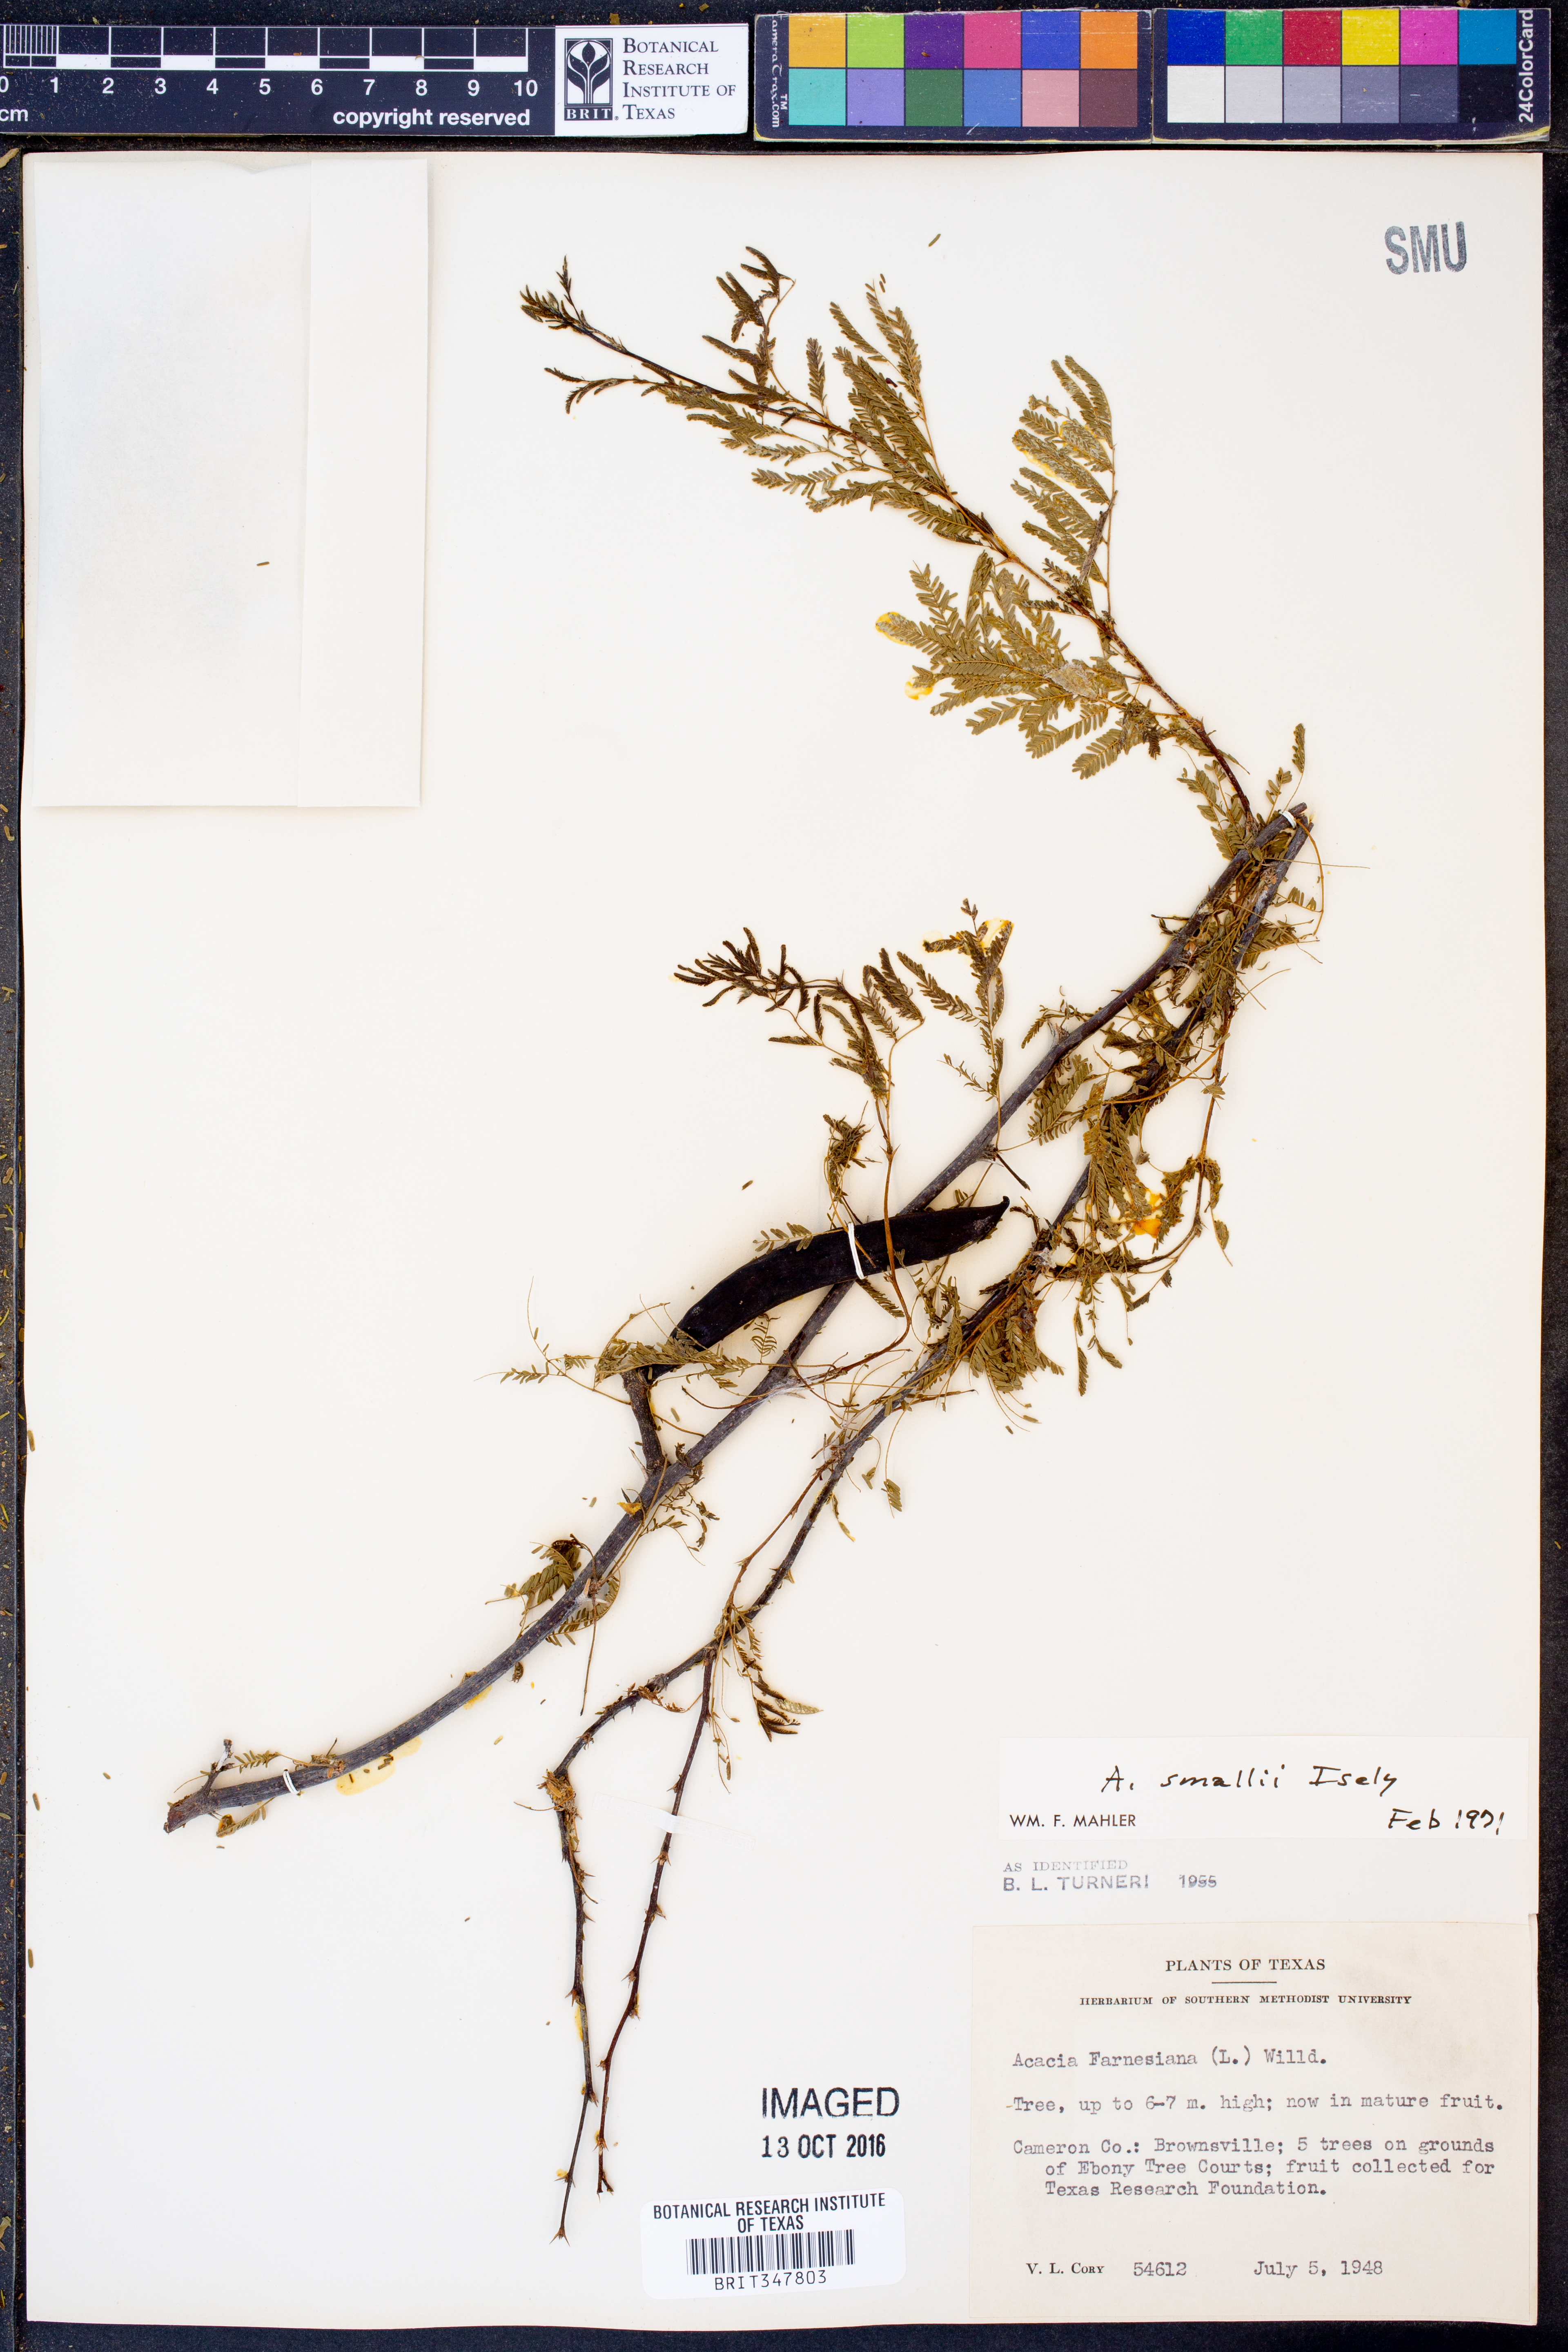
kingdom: Plantae
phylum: Tracheophyta
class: Magnoliopsida
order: Fabales
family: Fabaceae
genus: Vachellia
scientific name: Vachellia farnesiana
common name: Sweet acacia
